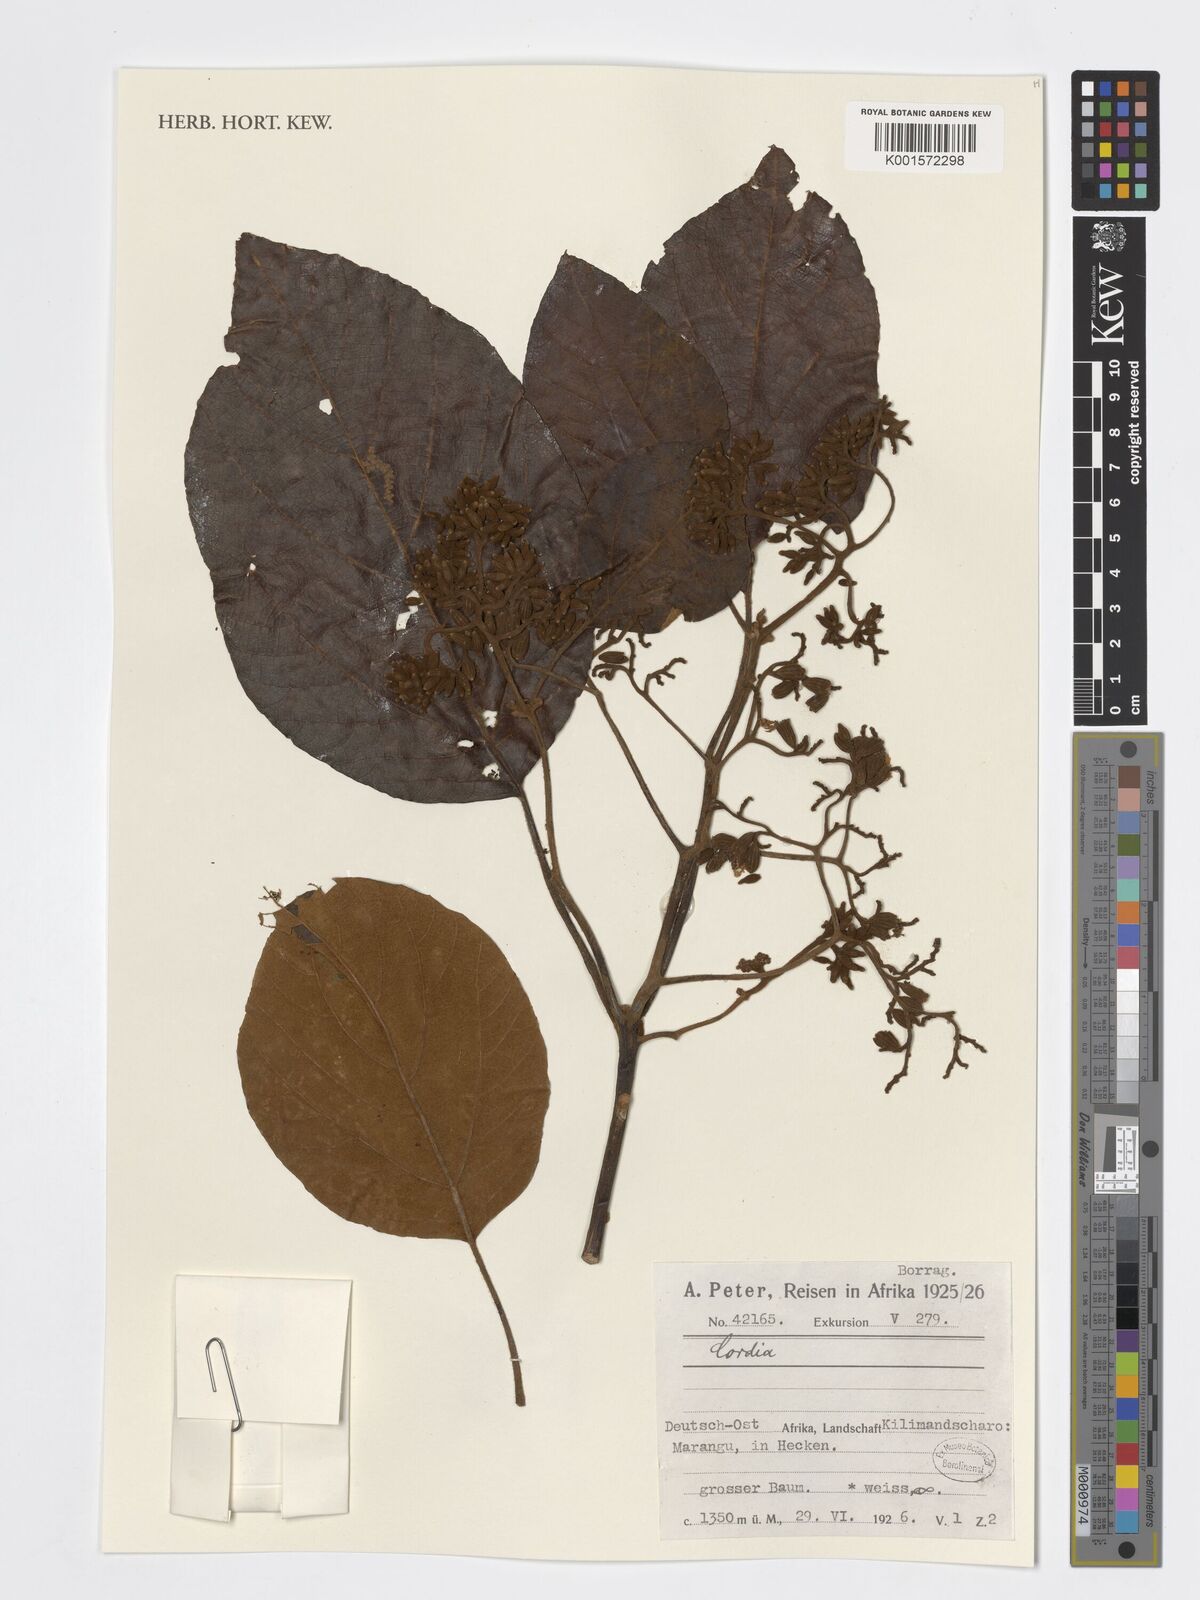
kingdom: Plantae
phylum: Tracheophyta
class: Magnoliopsida
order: Boraginales
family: Cordiaceae
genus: Cordia
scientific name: Cordia
